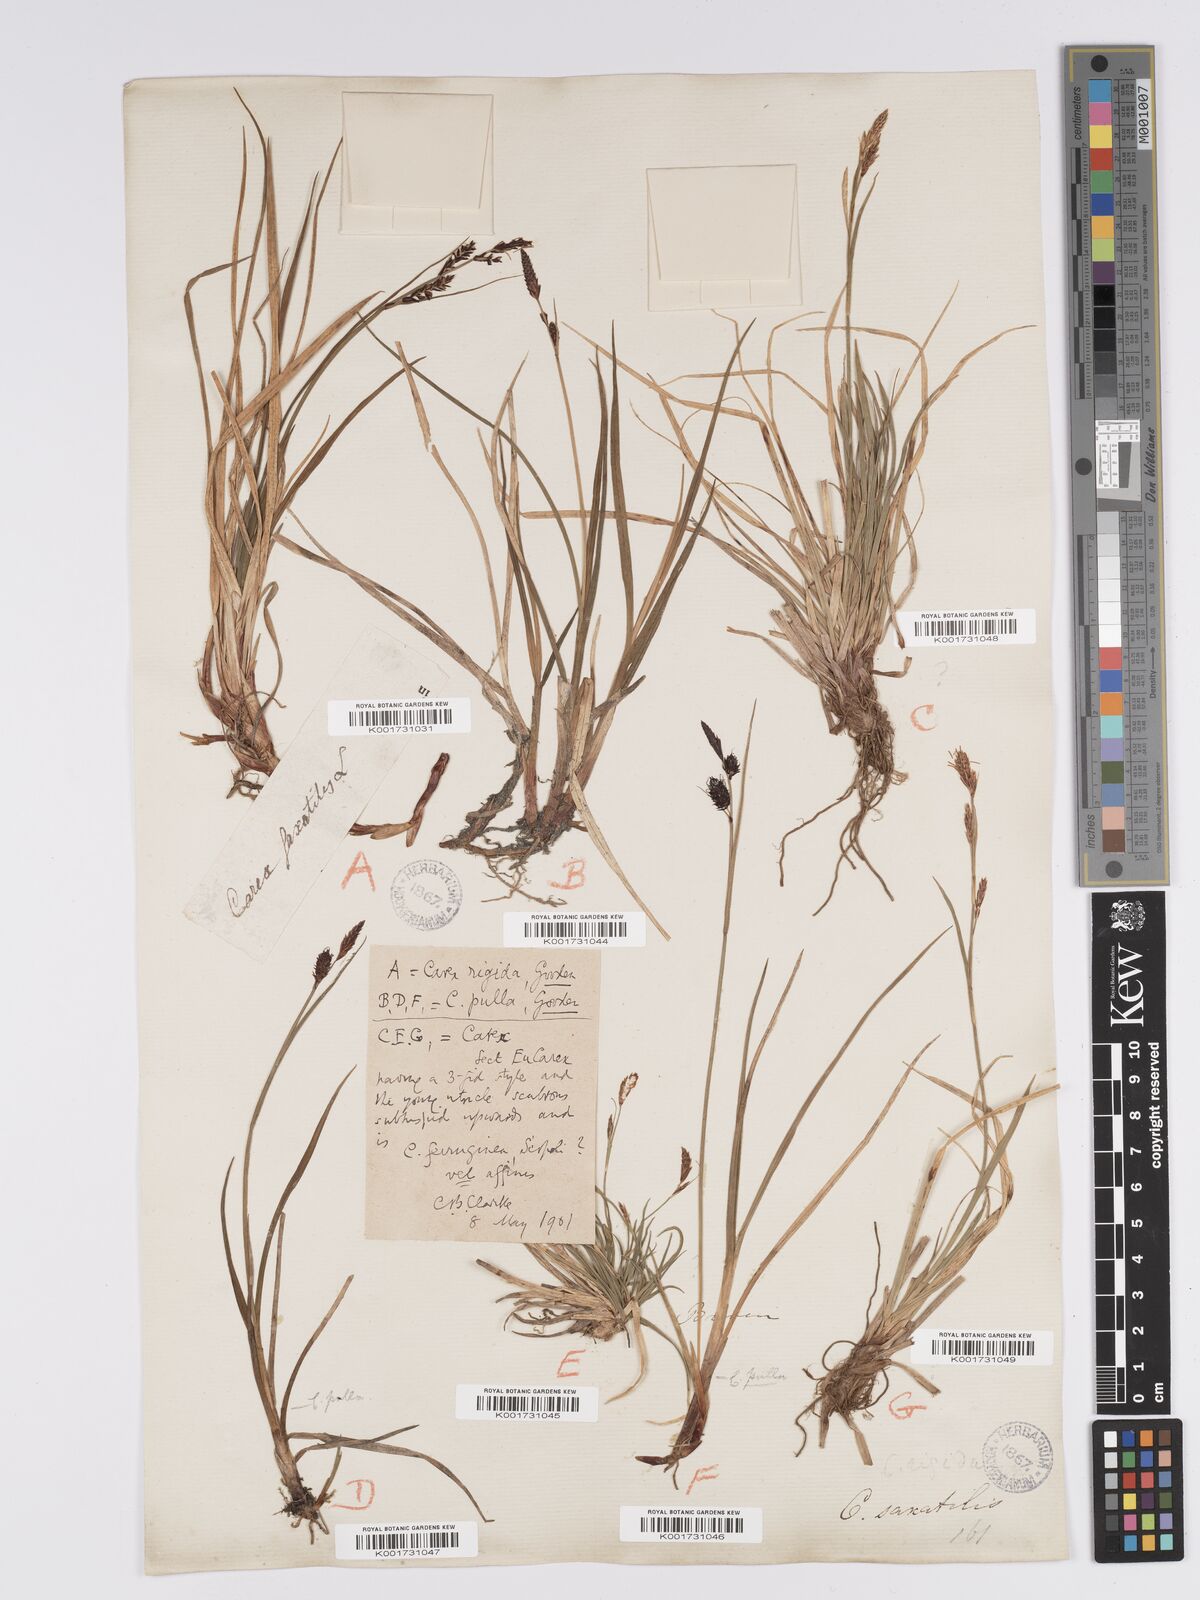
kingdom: Plantae
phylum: Tracheophyta
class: Liliopsida
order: Poales
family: Cyperaceae
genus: Carex
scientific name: Carex bigelowii
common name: Stiff sedge
